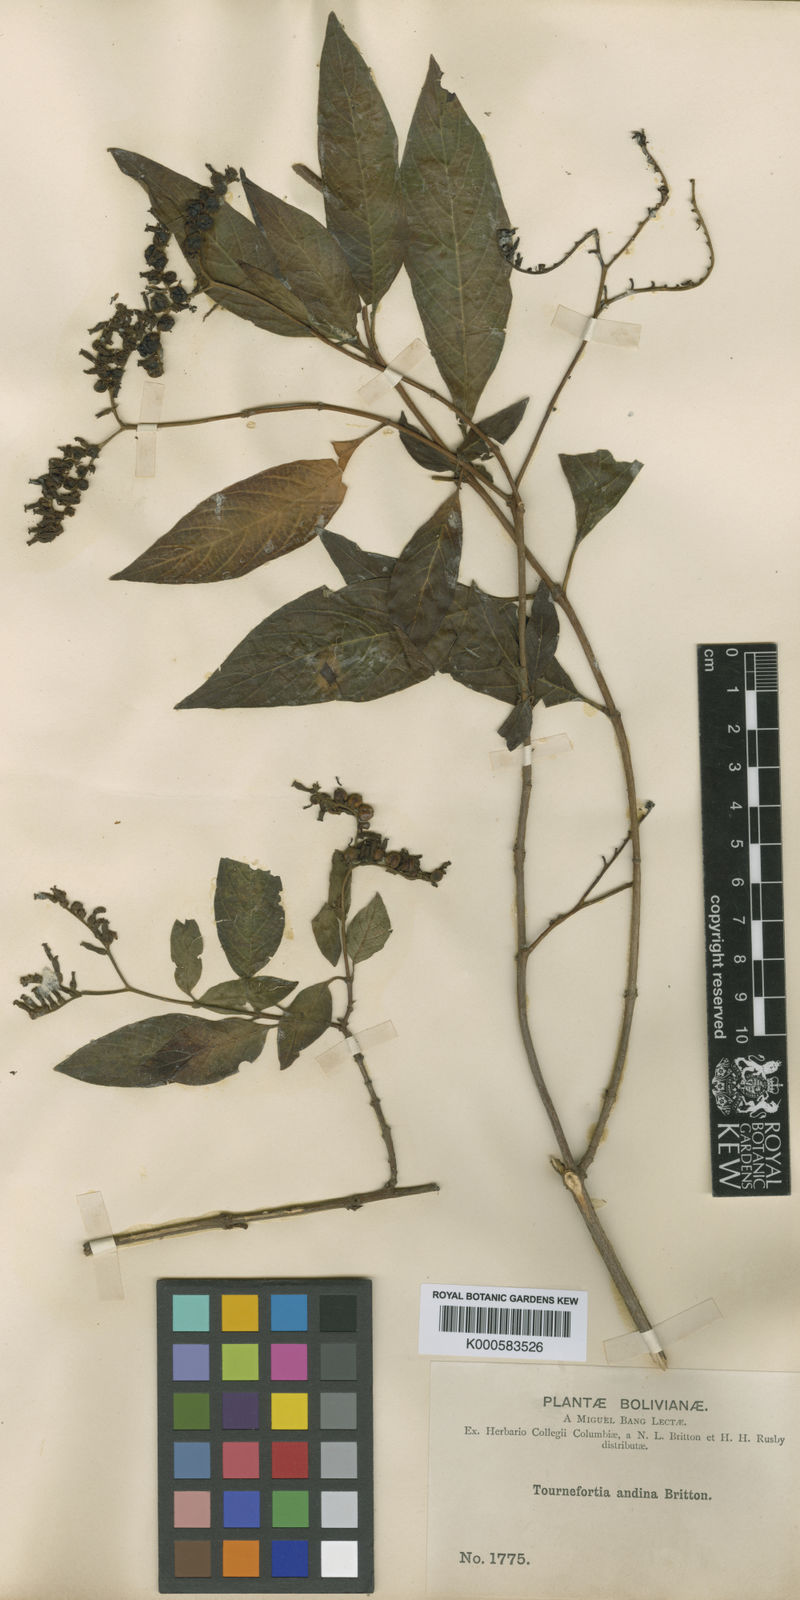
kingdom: Plantae
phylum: Tracheophyta
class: Magnoliopsida
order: Boraginales
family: Heliotropiaceae
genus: Heliotropium
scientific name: Heliotropium rusbyi
